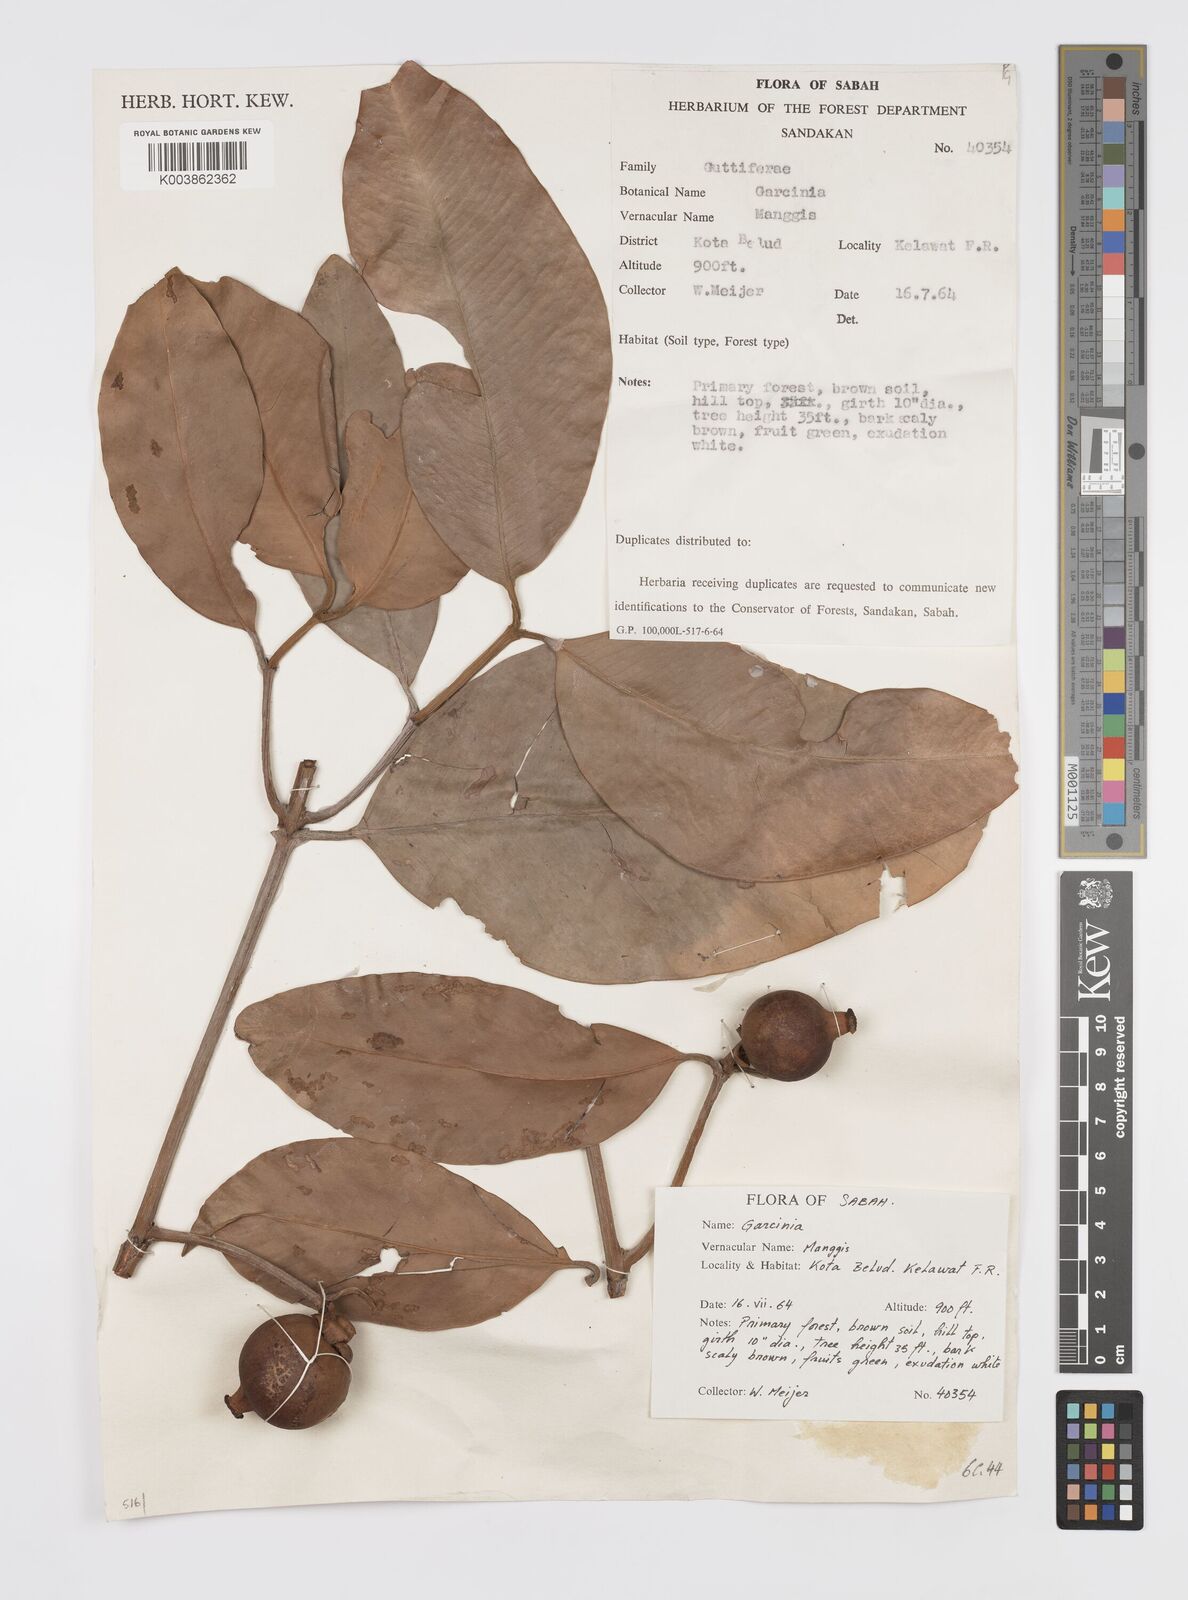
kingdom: Plantae
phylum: Tracheophyta
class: Magnoliopsida
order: Malpighiales
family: Clusiaceae
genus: Garcinia
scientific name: Garcinia venulosa
